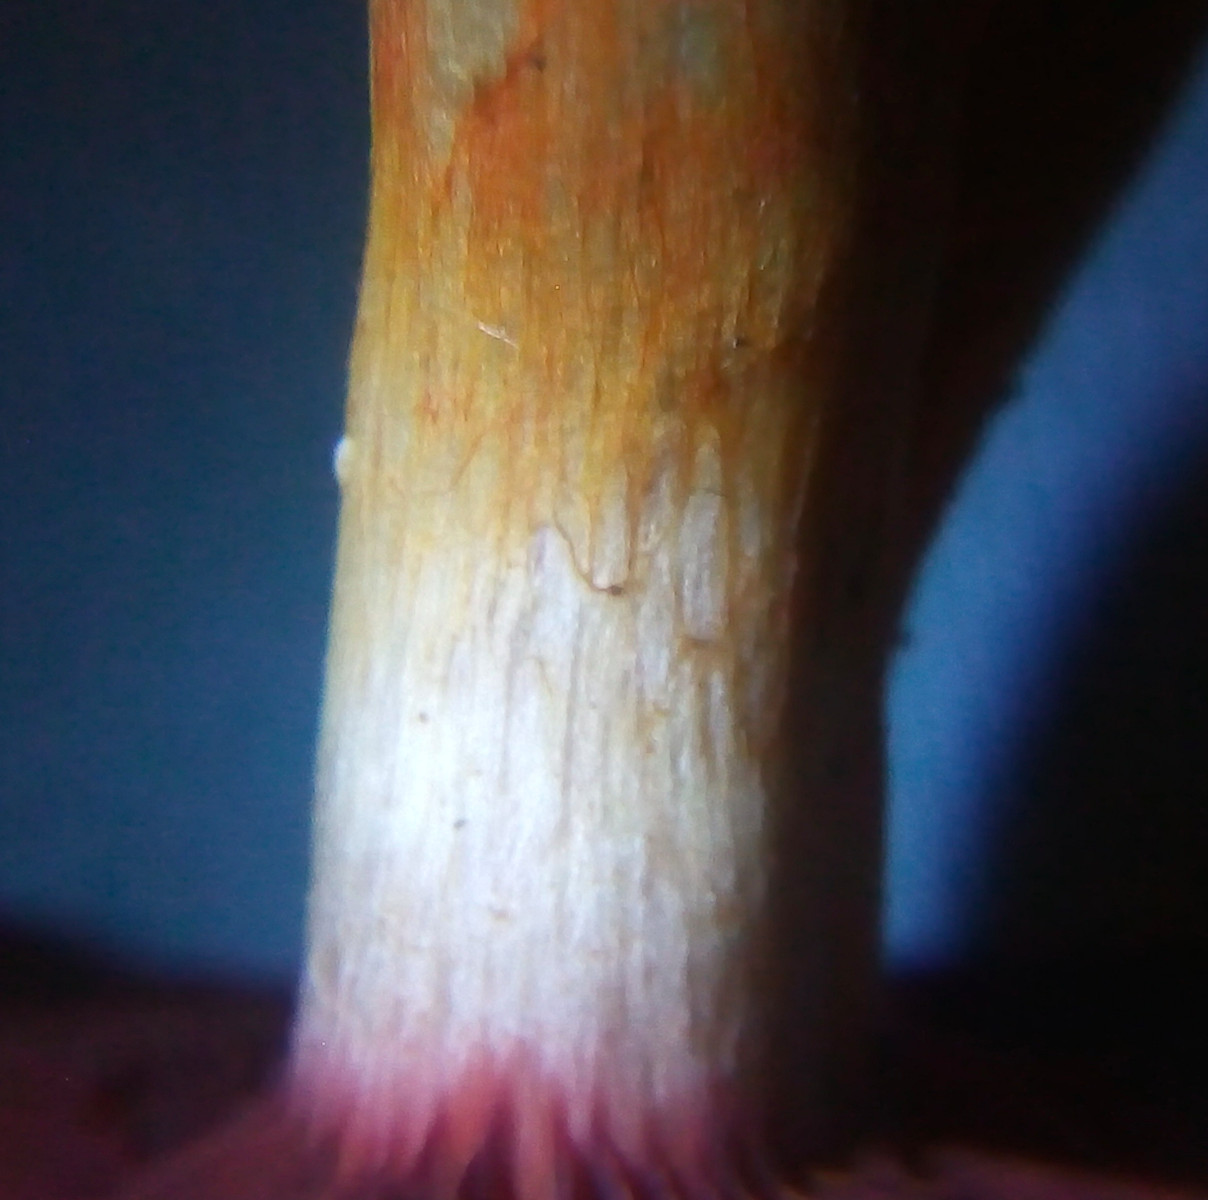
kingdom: Fungi
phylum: Basidiomycota
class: Agaricomycetes
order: Agaricales
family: Cortinariaceae
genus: Cortinarius
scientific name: Cortinarius
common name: cinnoberbladet slørhat
